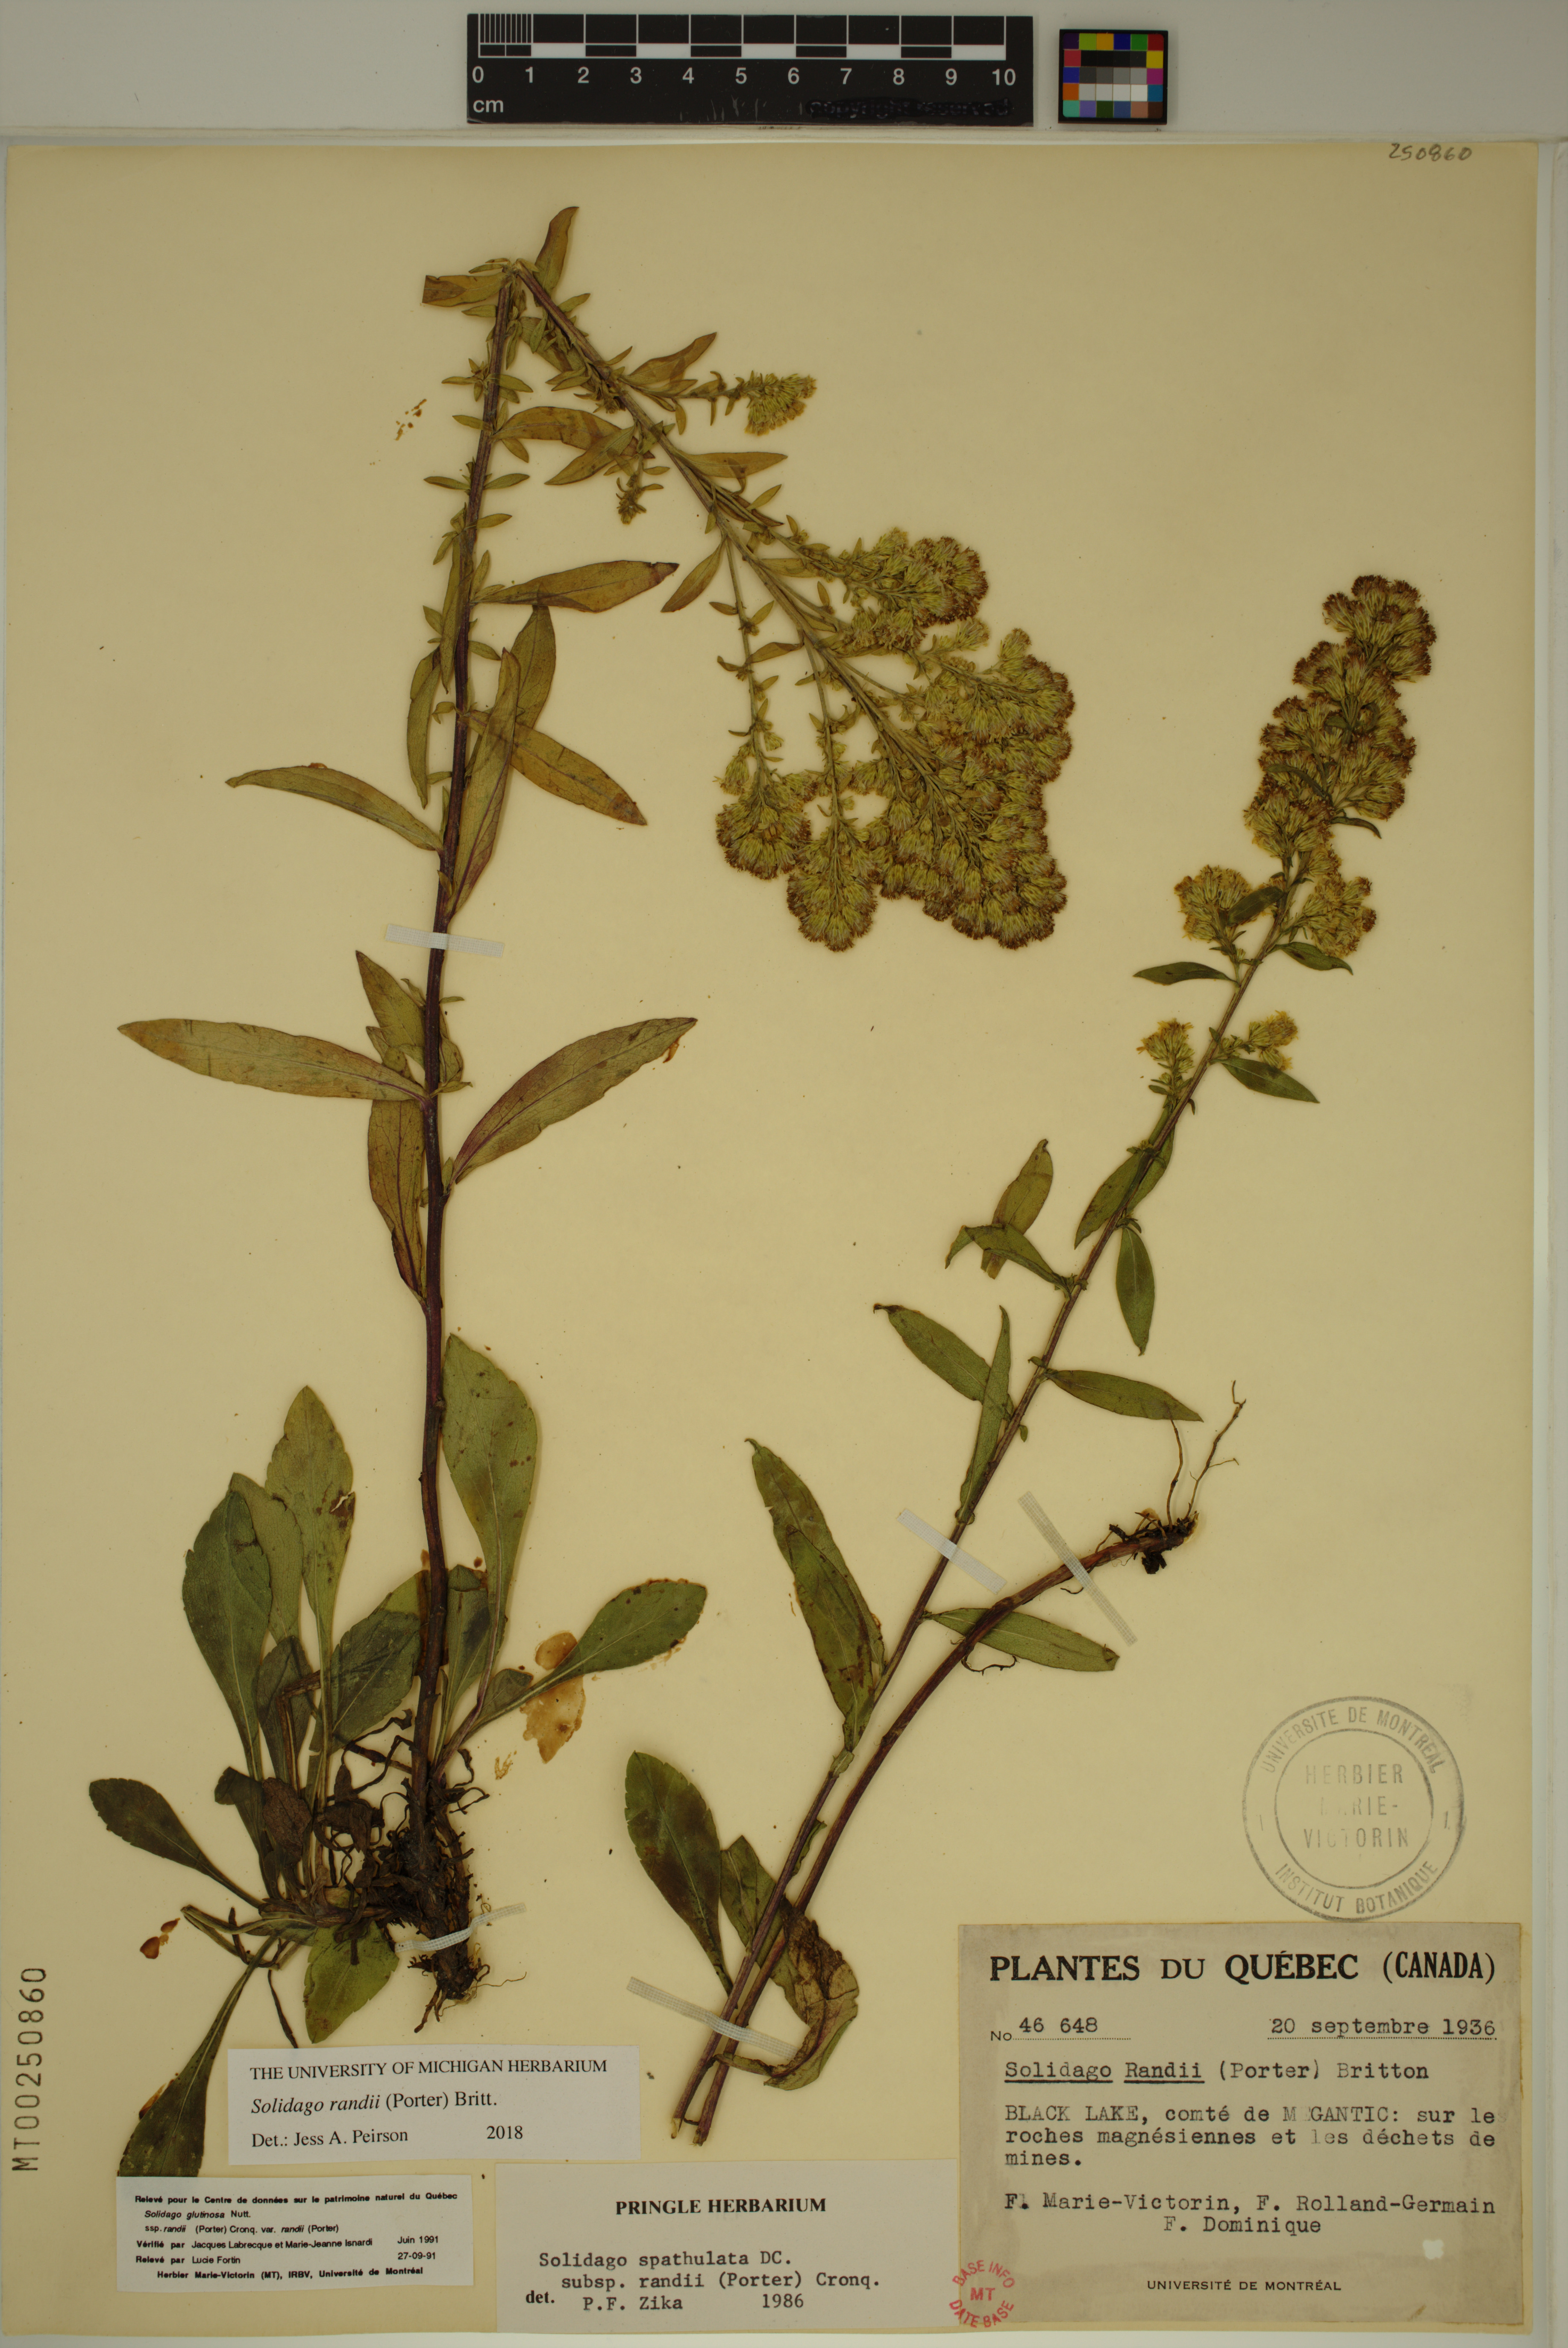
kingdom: Plantae
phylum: Tracheophyta
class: Magnoliopsida
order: Asterales
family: Asteraceae
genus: Solidago
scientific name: Solidago randii
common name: Rand's goldenrod
